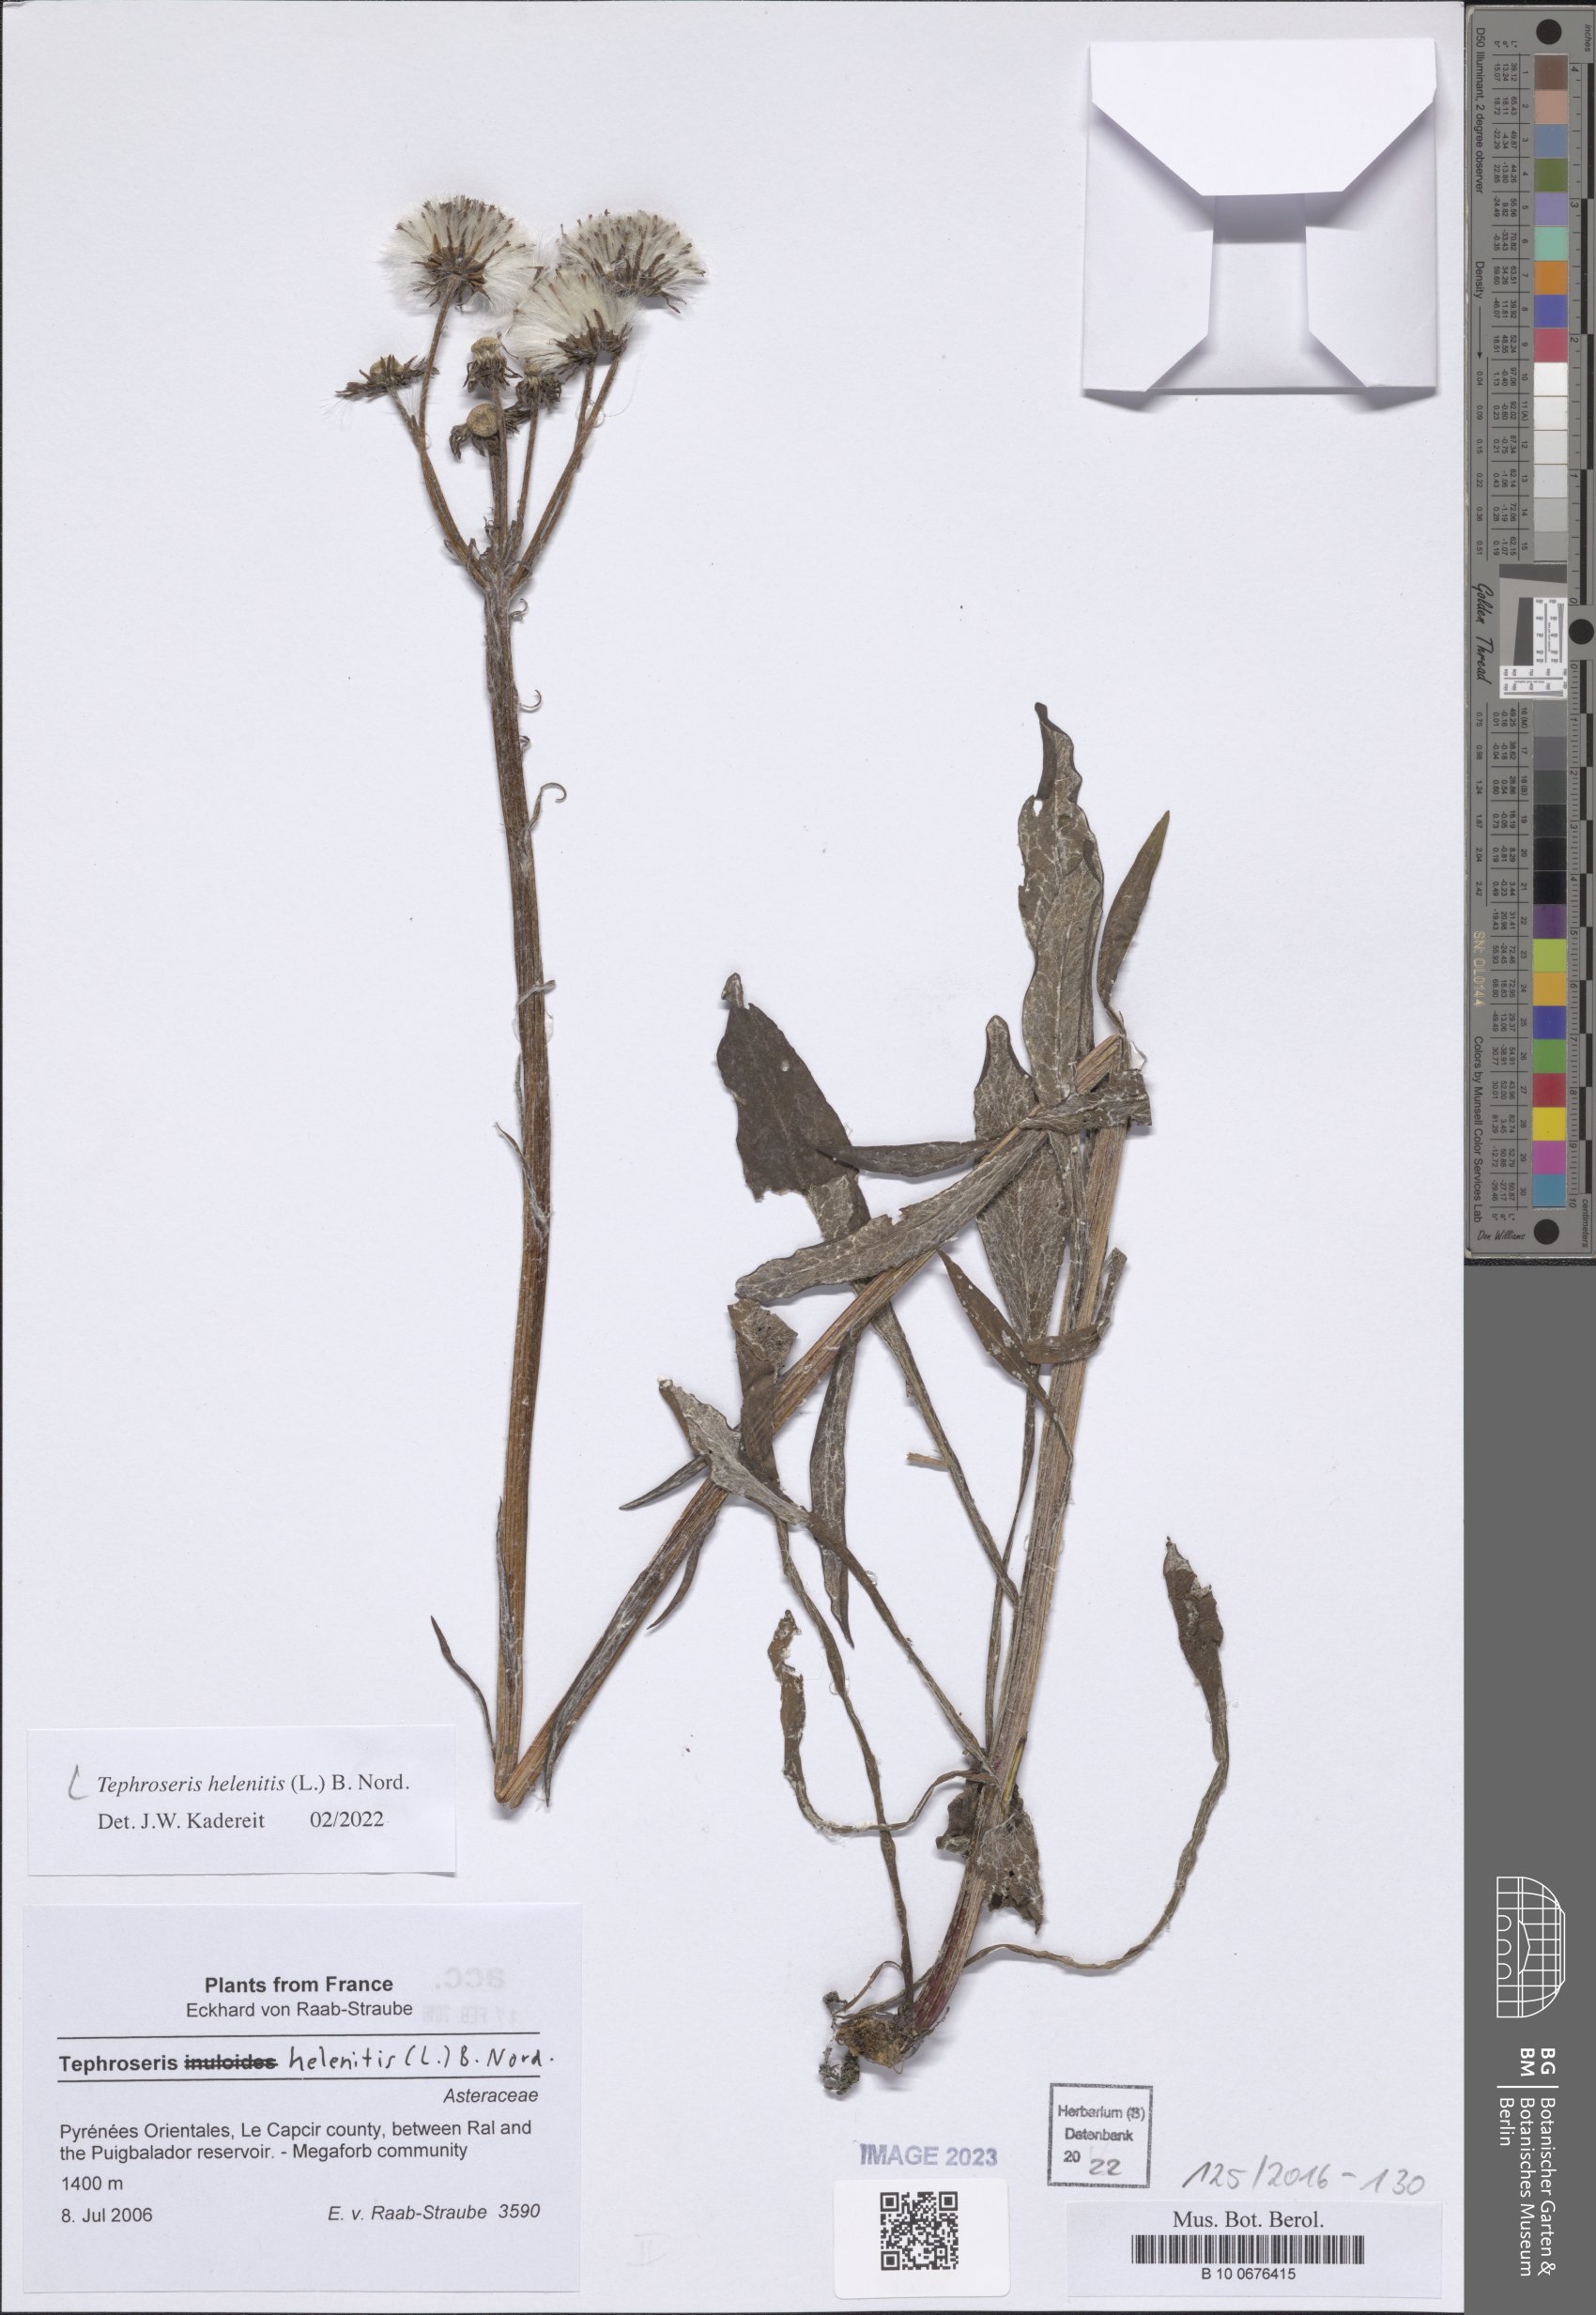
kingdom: Plantae
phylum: Tracheophyta
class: Magnoliopsida
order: Asterales
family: Asteraceae
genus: Tephroseris
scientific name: Tephroseris helenitis
